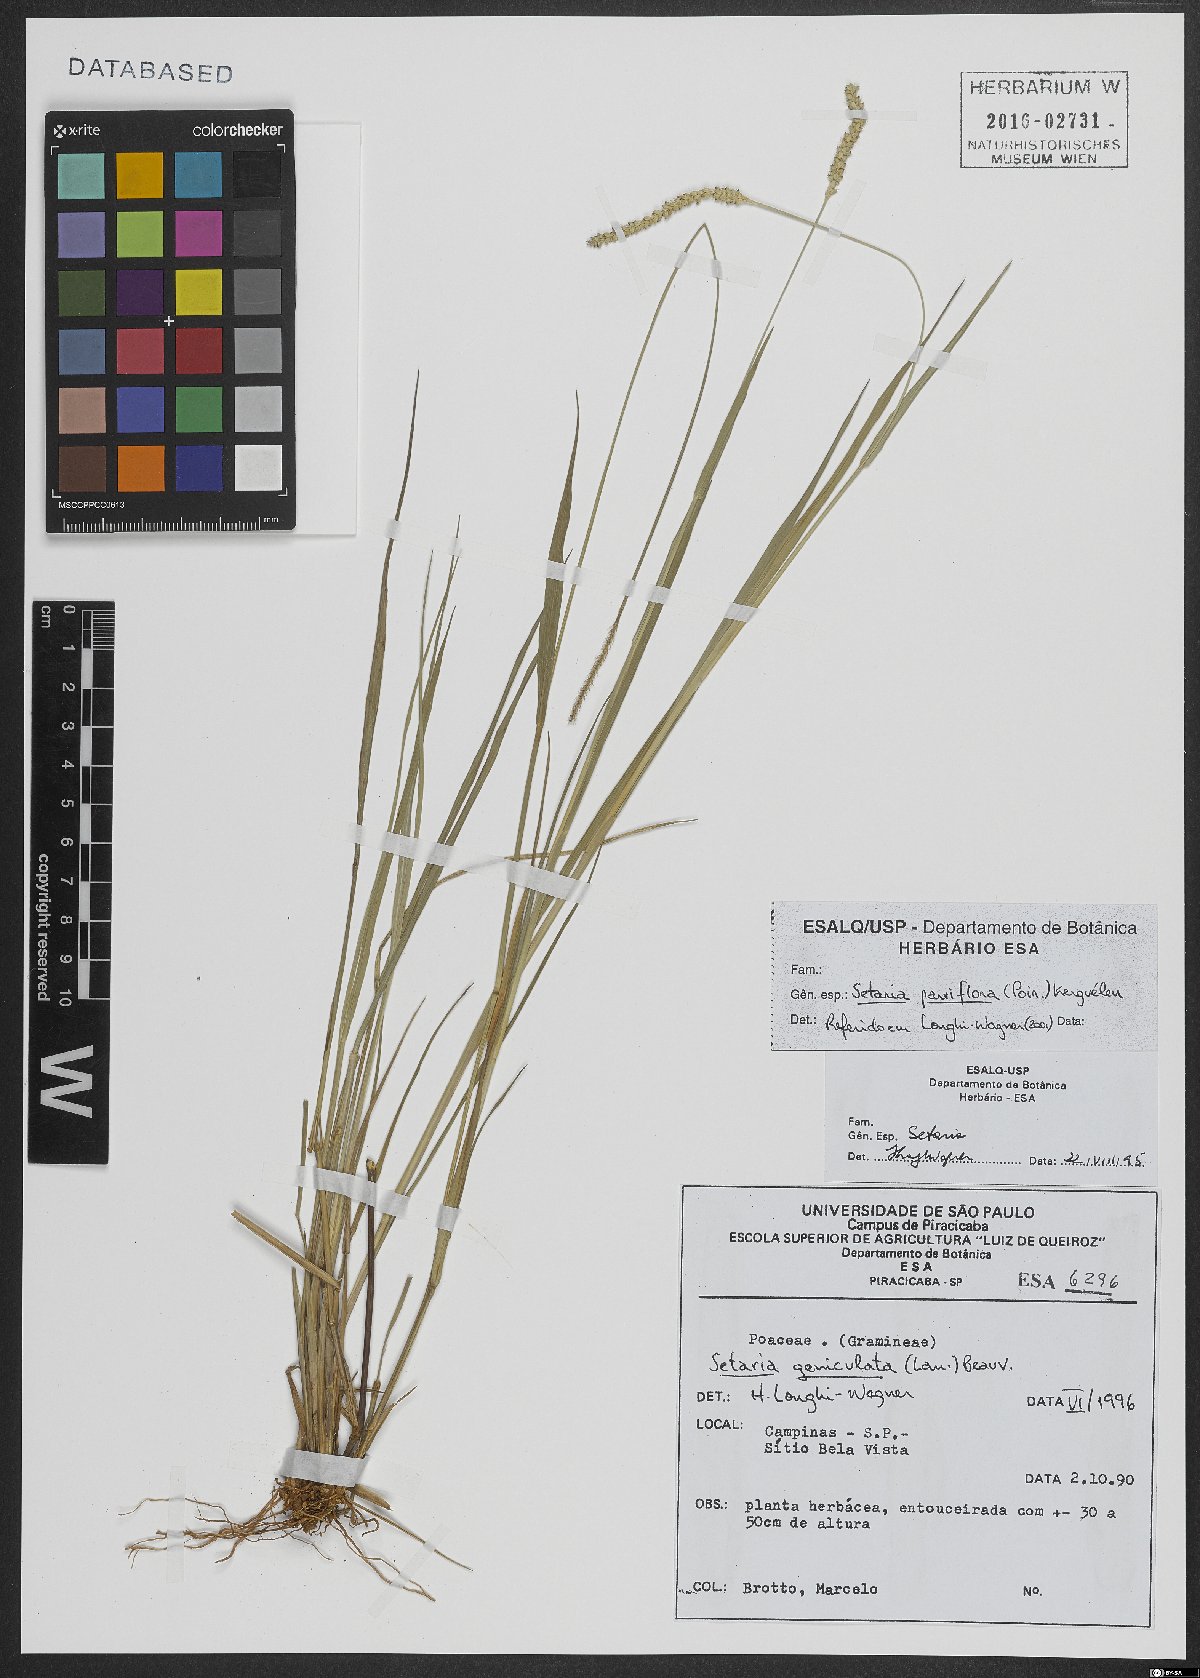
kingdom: Plantae
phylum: Tracheophyta
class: Liliopsida
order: Poales
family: Poaceae
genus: Setaria
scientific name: Setaria parviflora
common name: Knotroot bristle-grass
